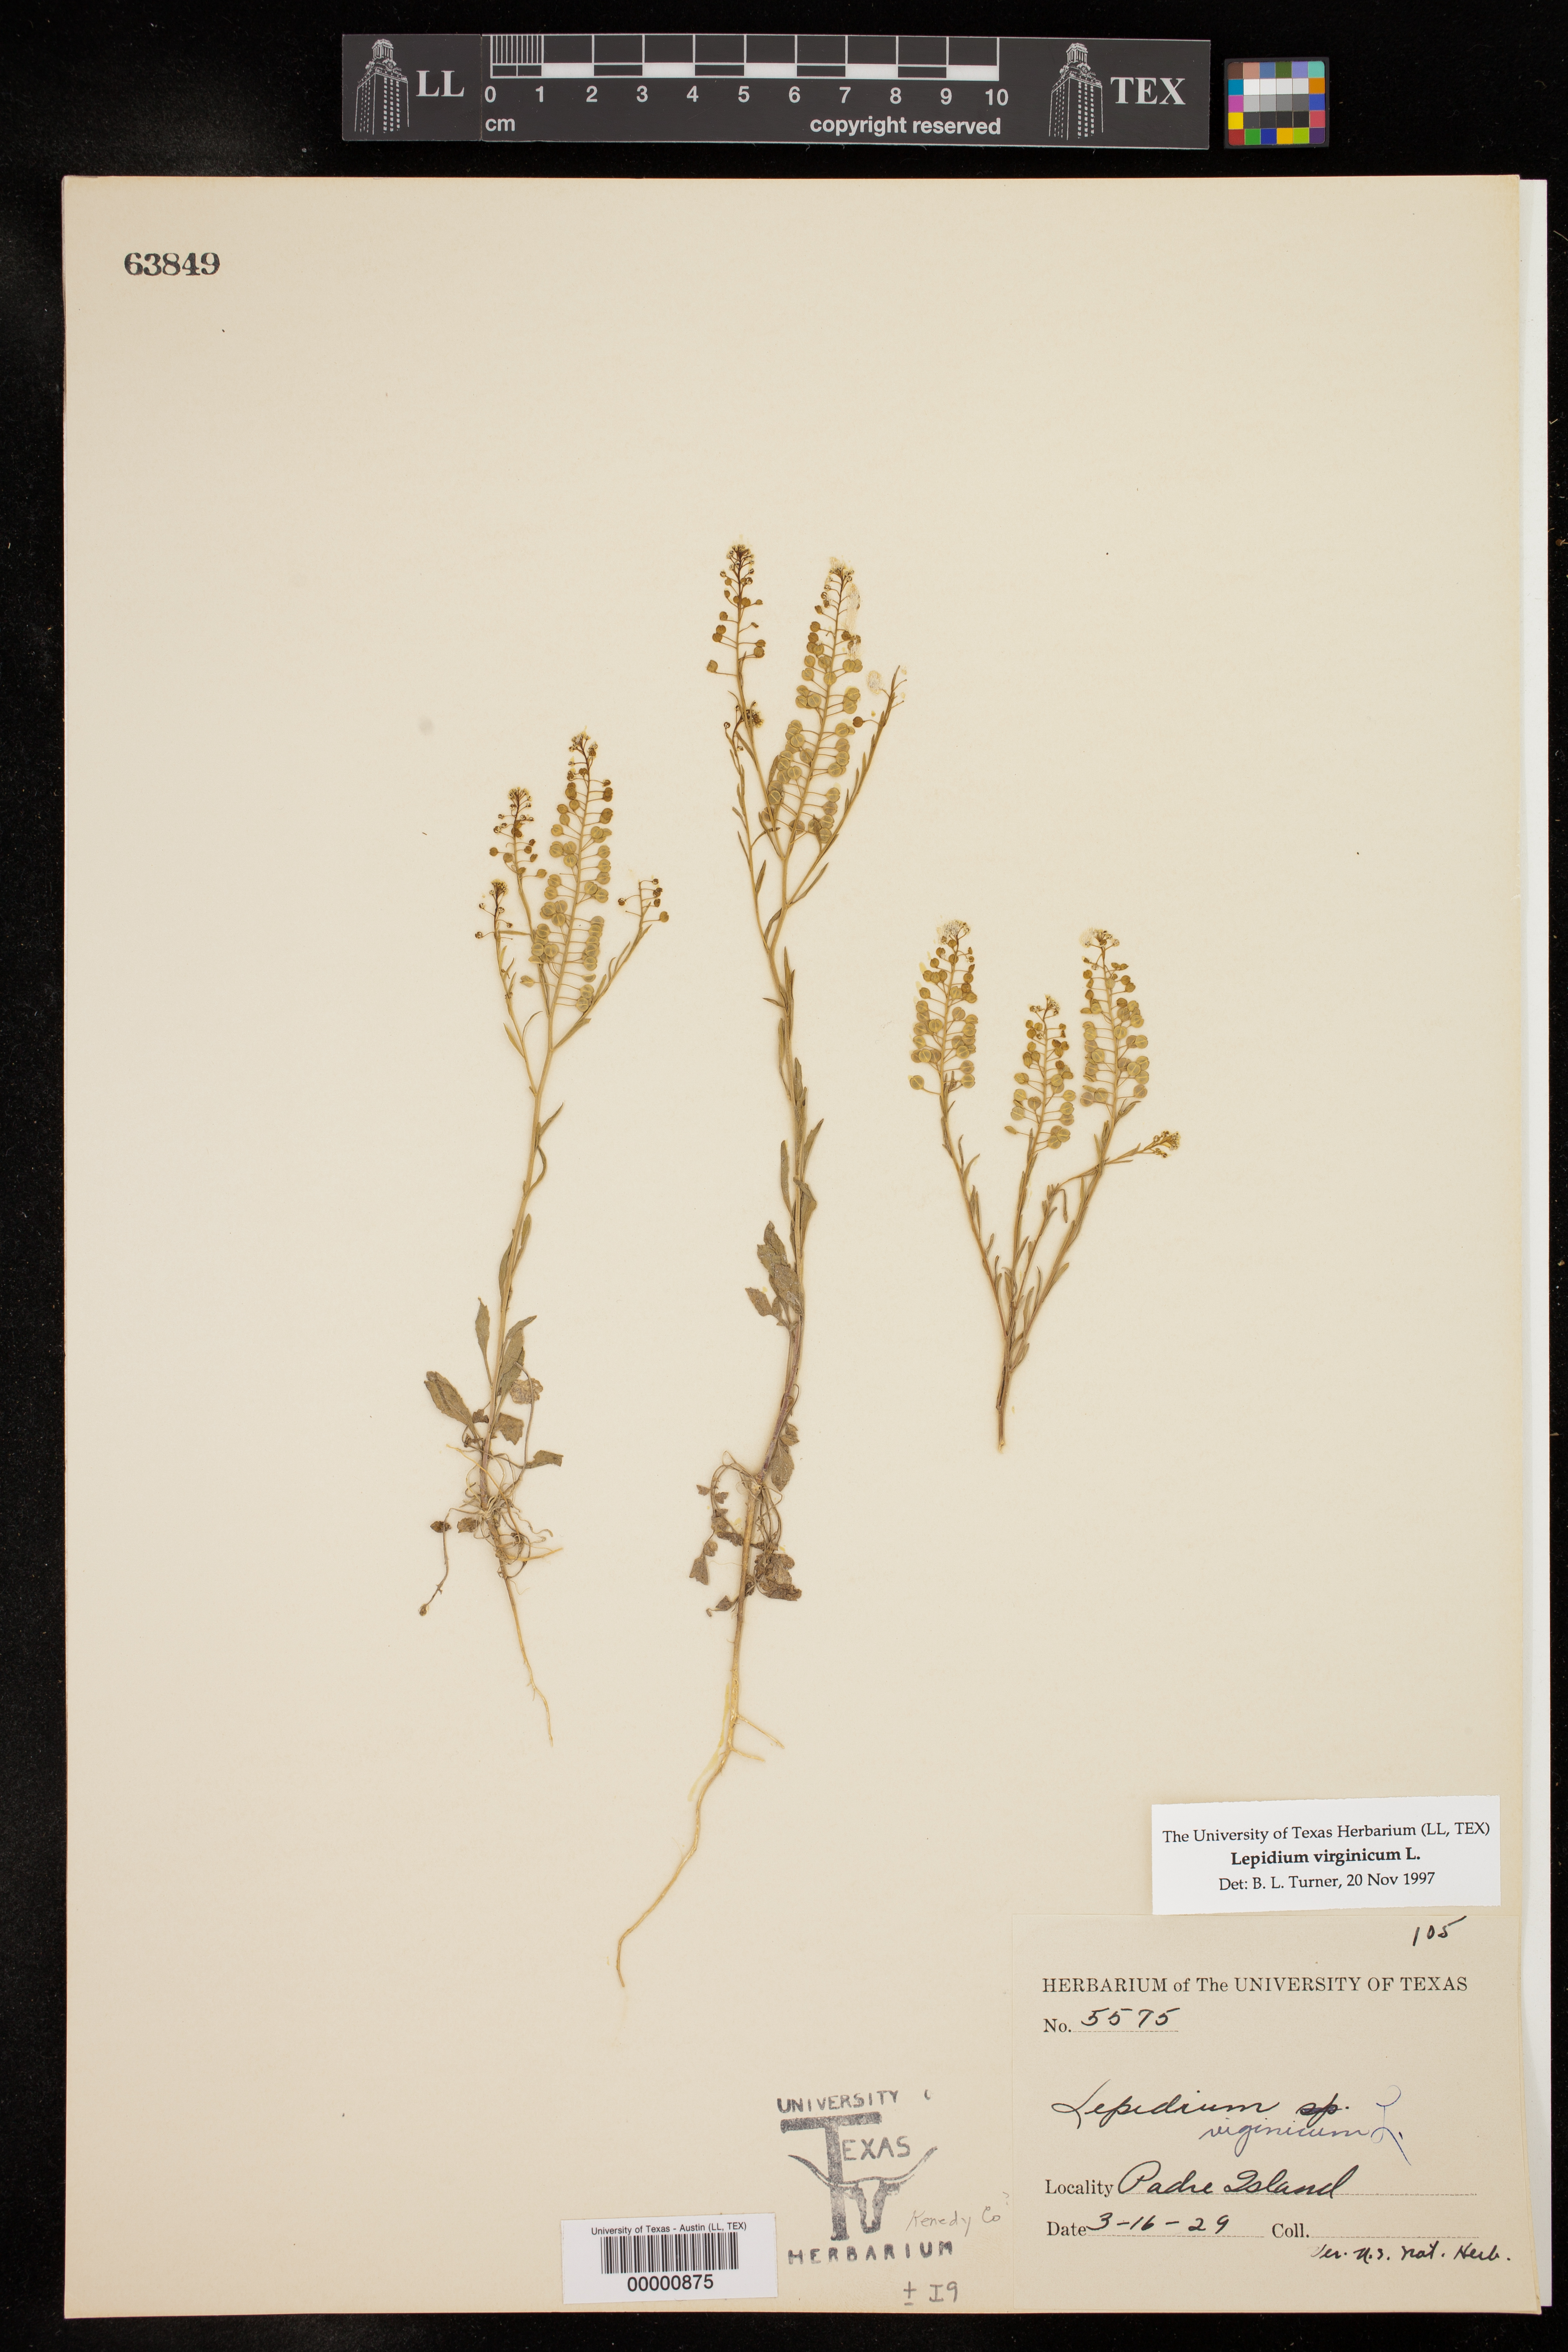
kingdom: Plantae
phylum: Tracheophyta
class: Magnoliopsida
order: Brassicales
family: Brassicaceae
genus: Lepidium
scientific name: Lepidium virginicum
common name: Least pepperwort
